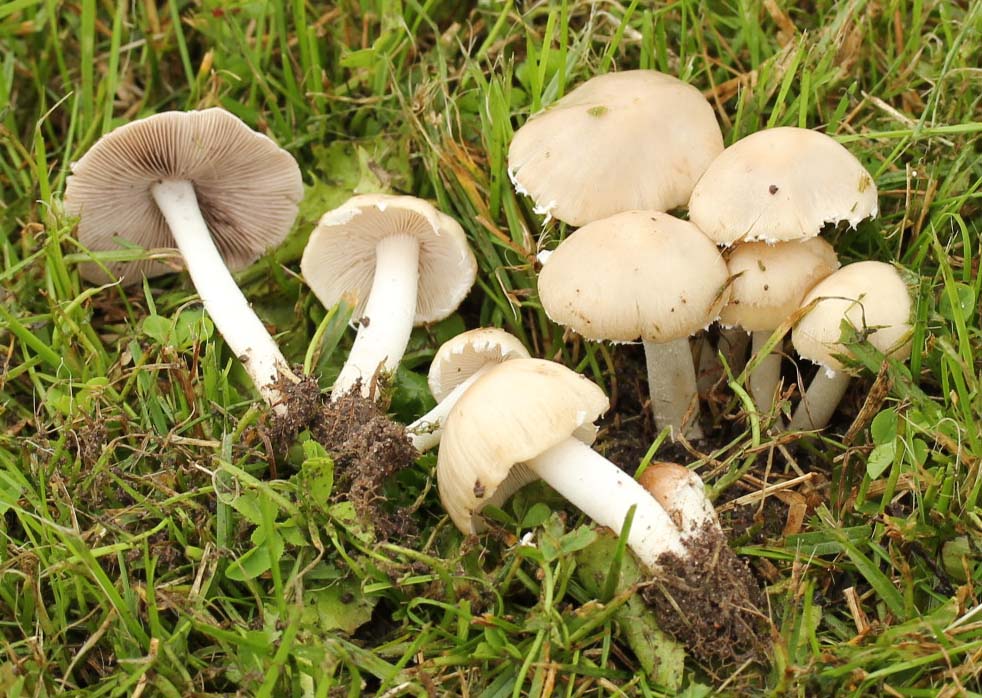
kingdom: Fungi
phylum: Basidiomycota
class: Agaricomycetes
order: Agaricales
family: Psathyrellaceae
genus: Candolleomyces
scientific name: Candolleomyces candolleanus
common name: Candolles mørkhat
